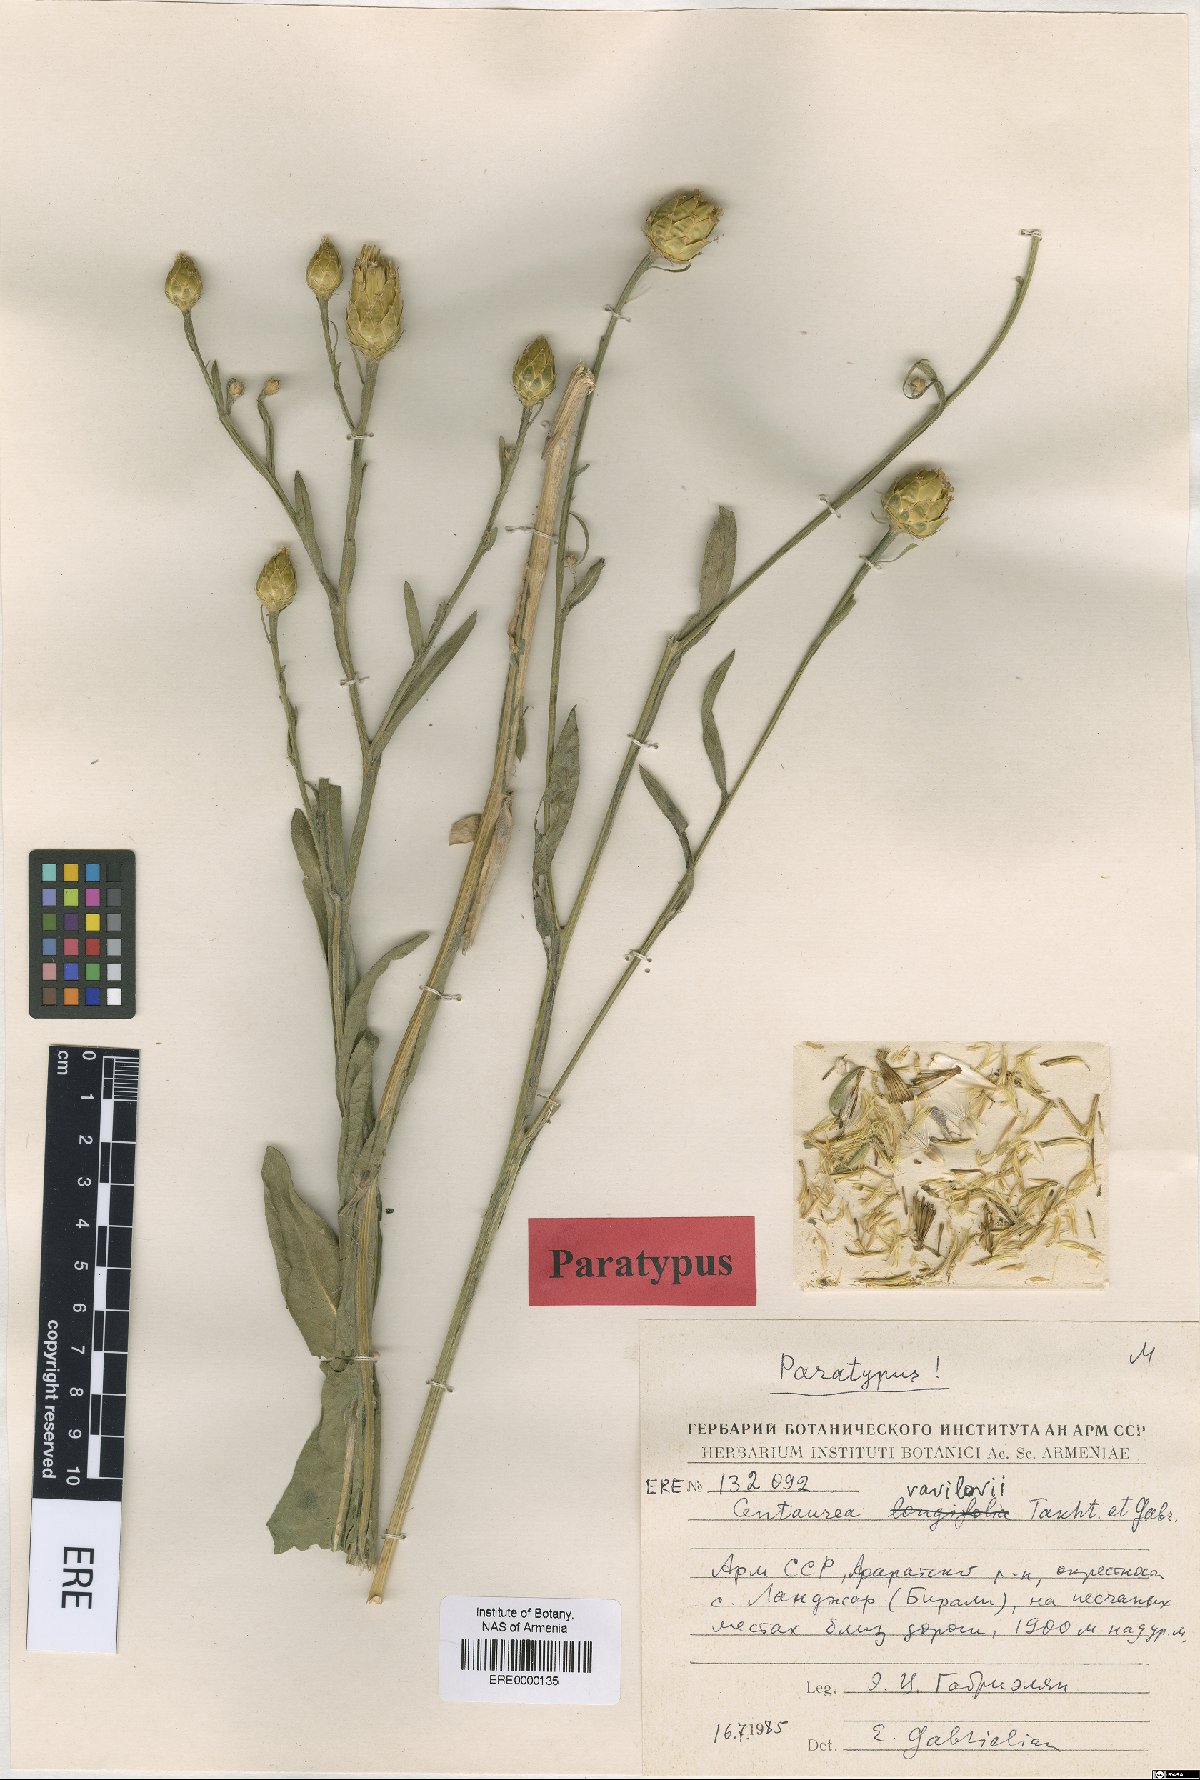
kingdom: Plantae
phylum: Tracheophyta
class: Magnoliopsida
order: Asterales
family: Asteraceae
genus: Centaurea
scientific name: Centaurea vavilovii
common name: Vavilov's centaury
